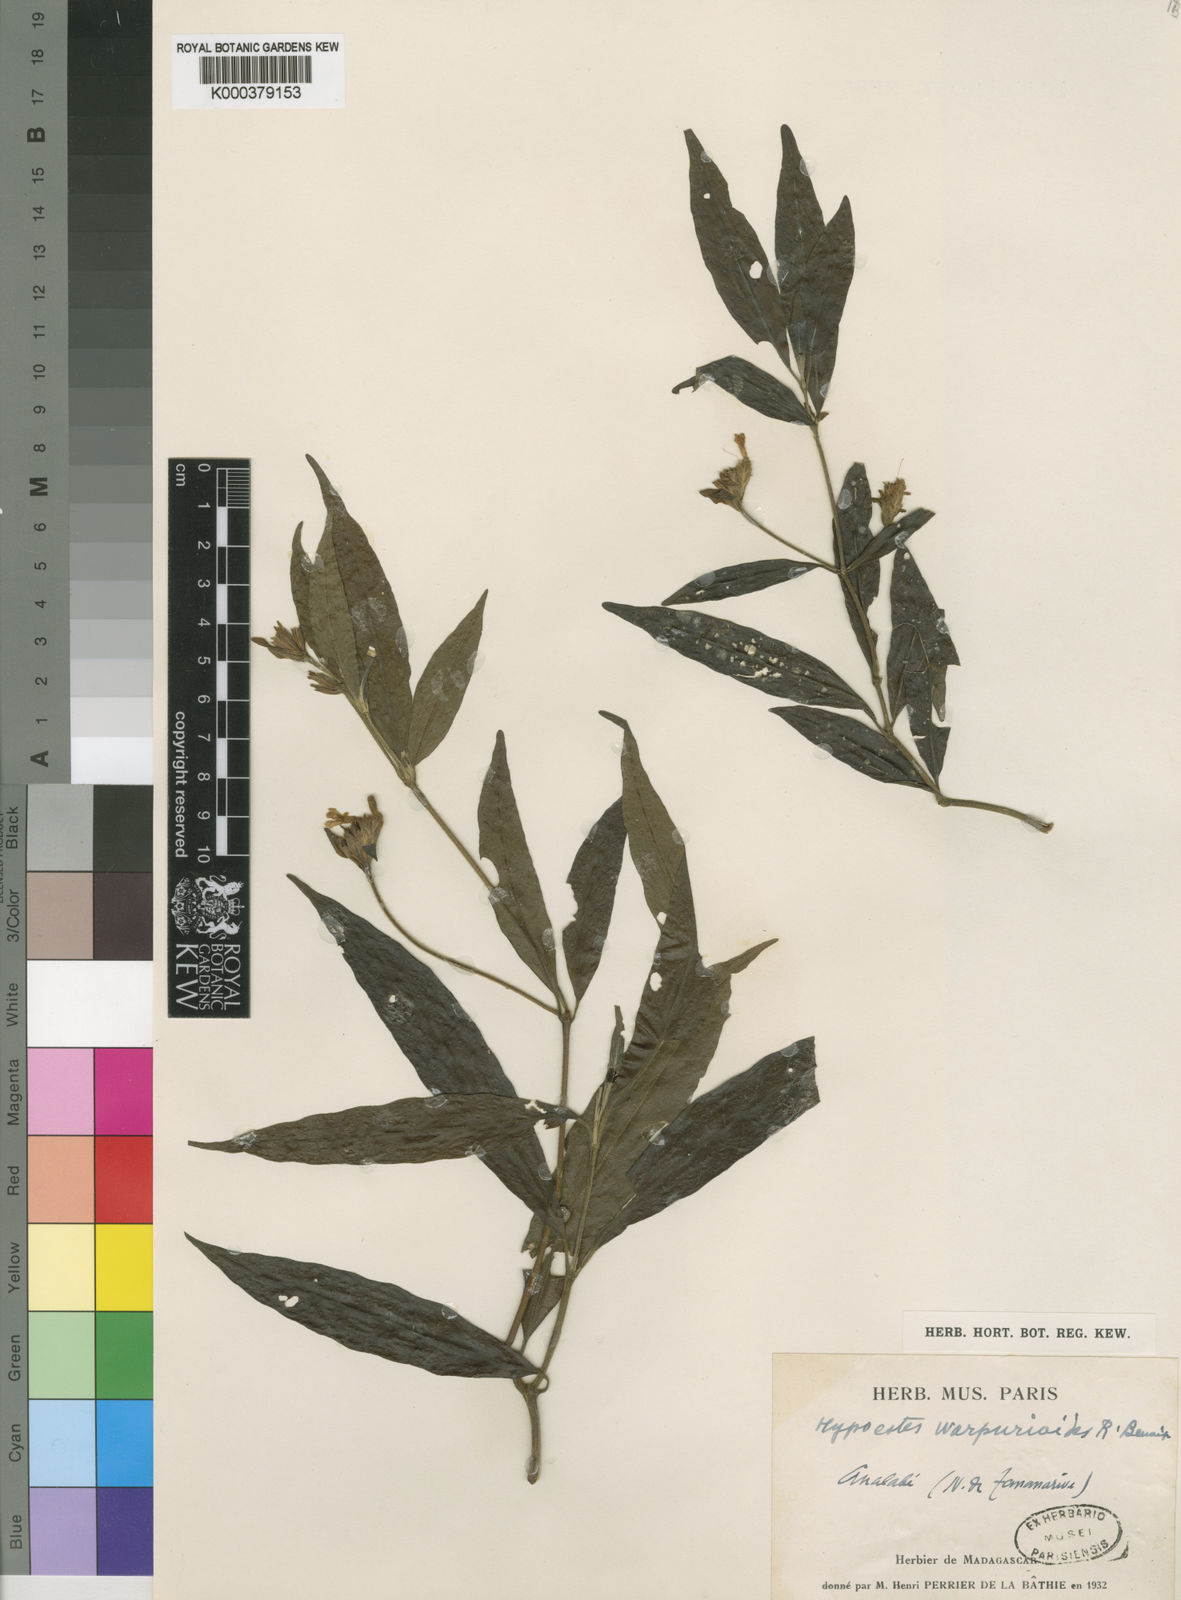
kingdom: Plantae
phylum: Tracheophyta
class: Magnoliopsida
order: Lamiales
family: Acanthaceae
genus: Hypoestes
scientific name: Hypoestes warpurioides
